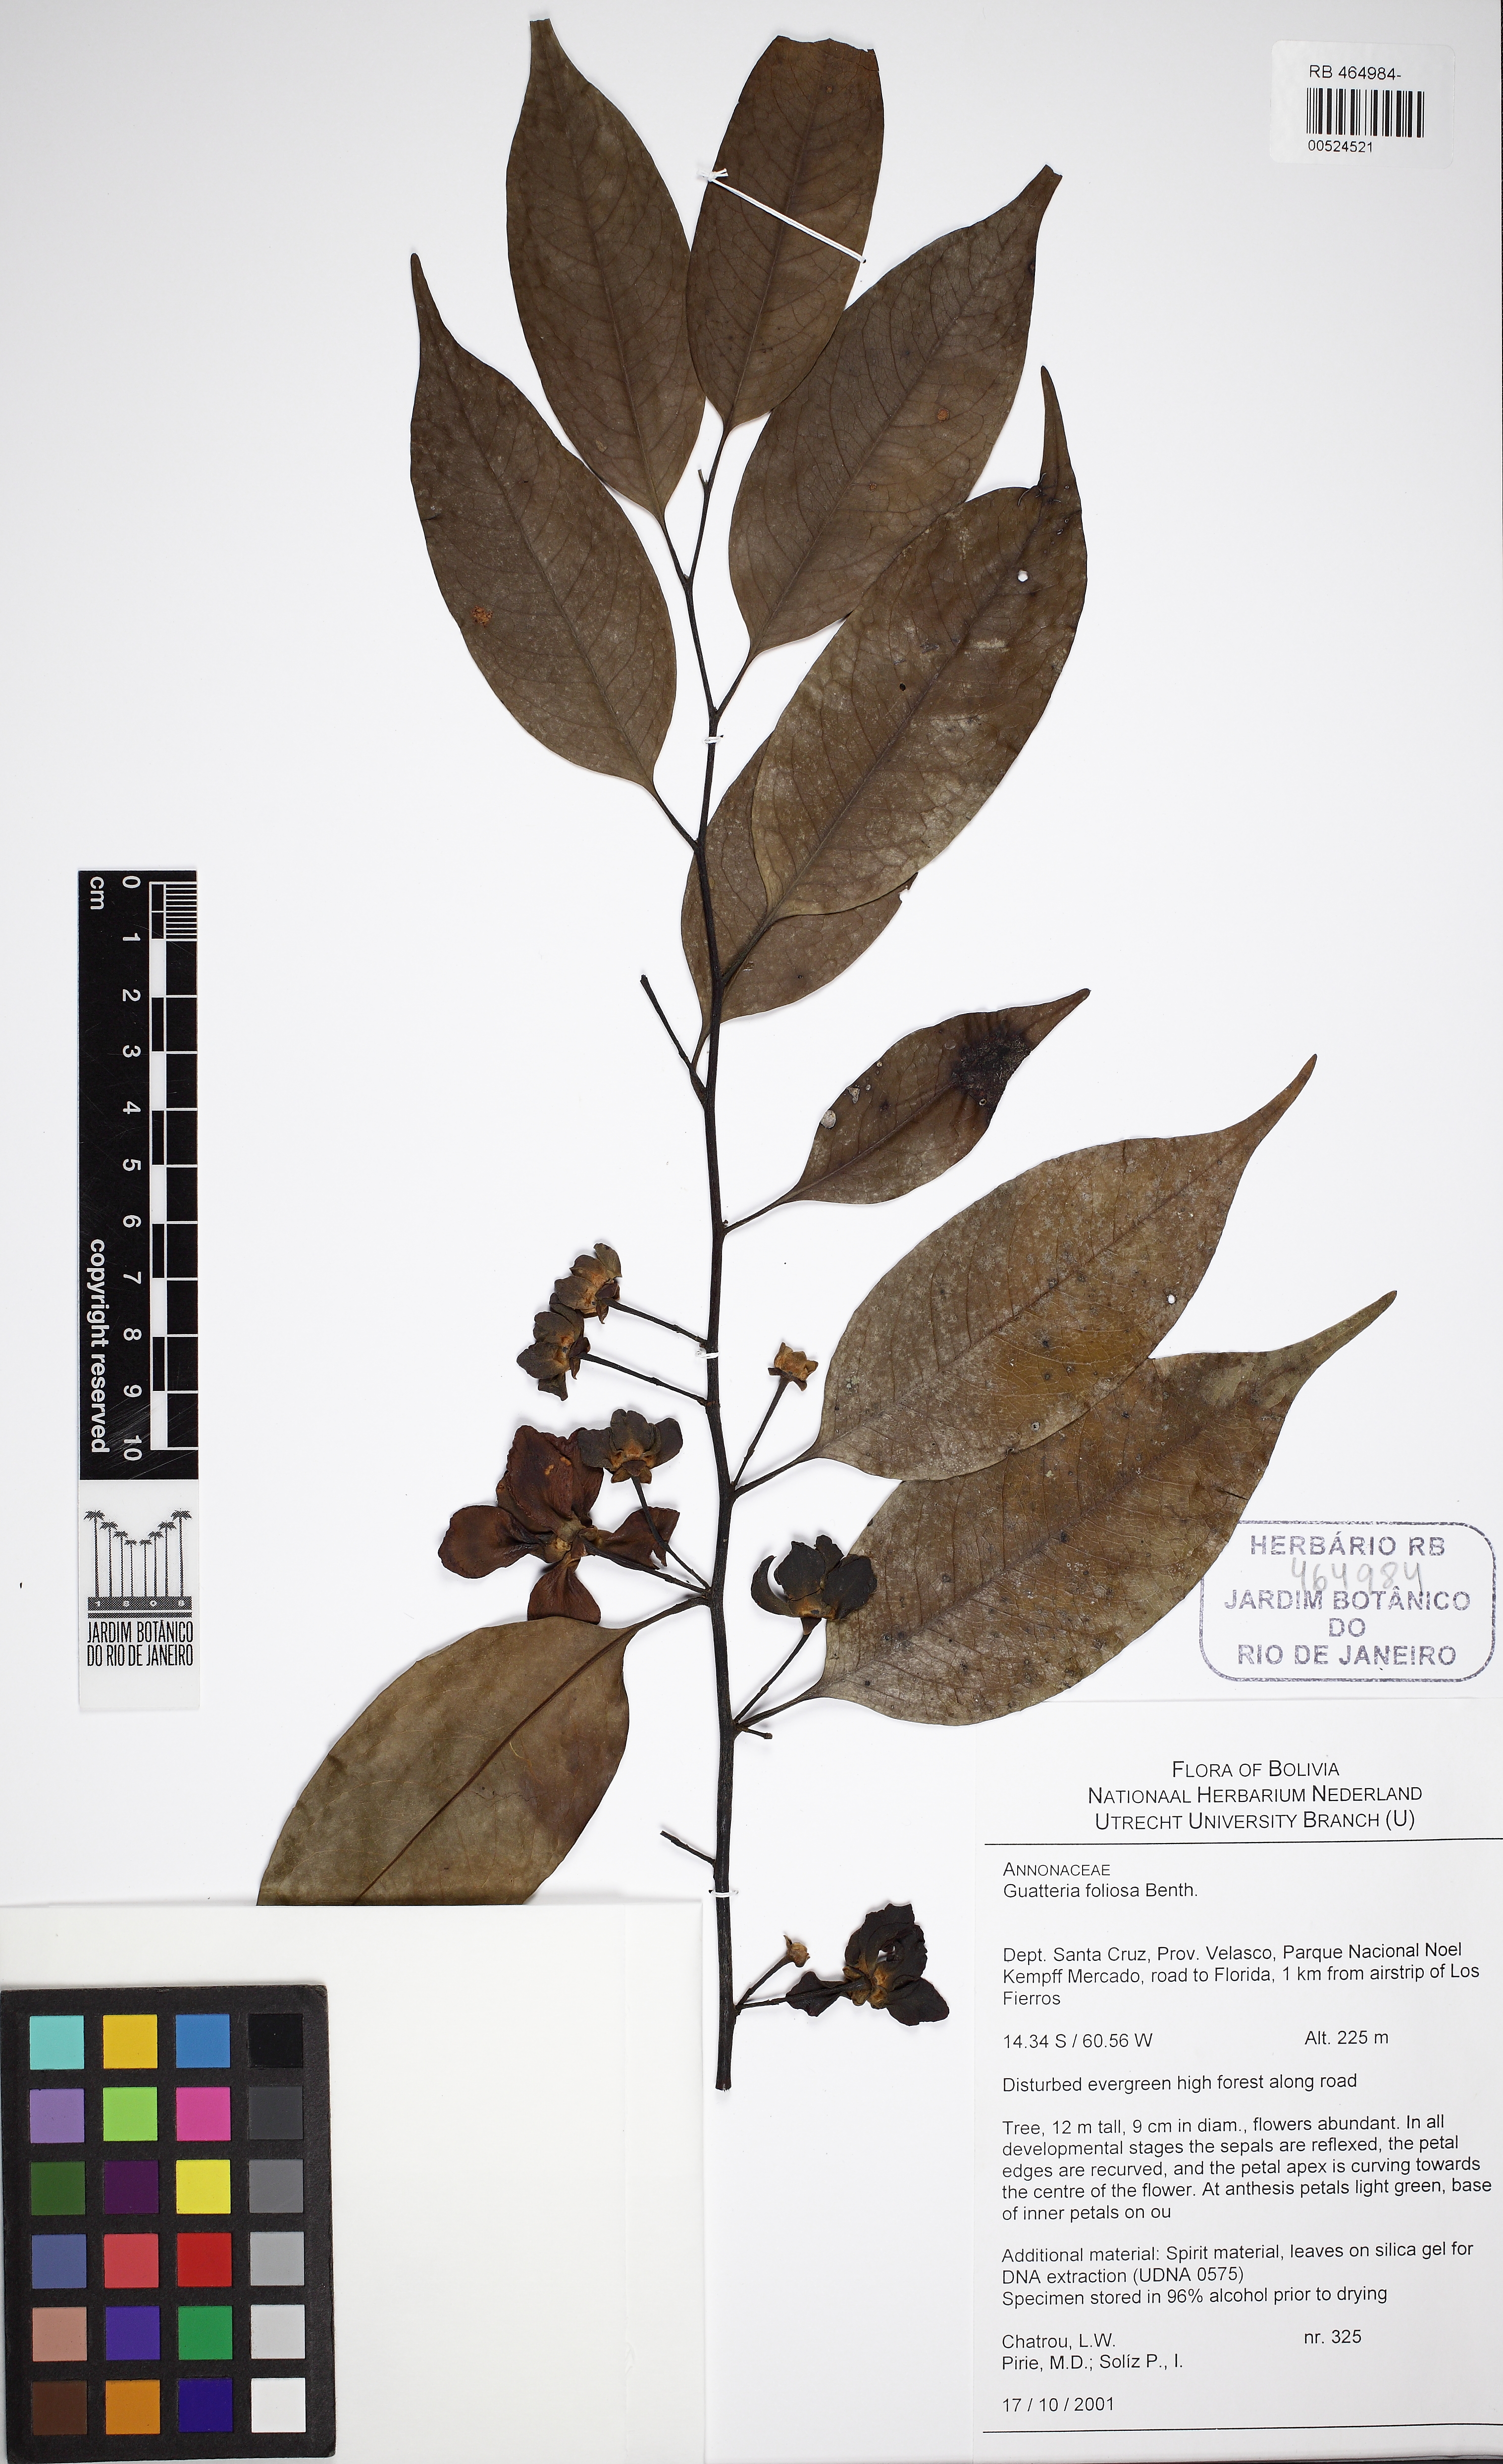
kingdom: Plantae
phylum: Tracheophyta
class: Magnoliopsida
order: Magnoliales
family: Annonaceae
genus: Guatteria
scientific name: Guatteria foliosa
